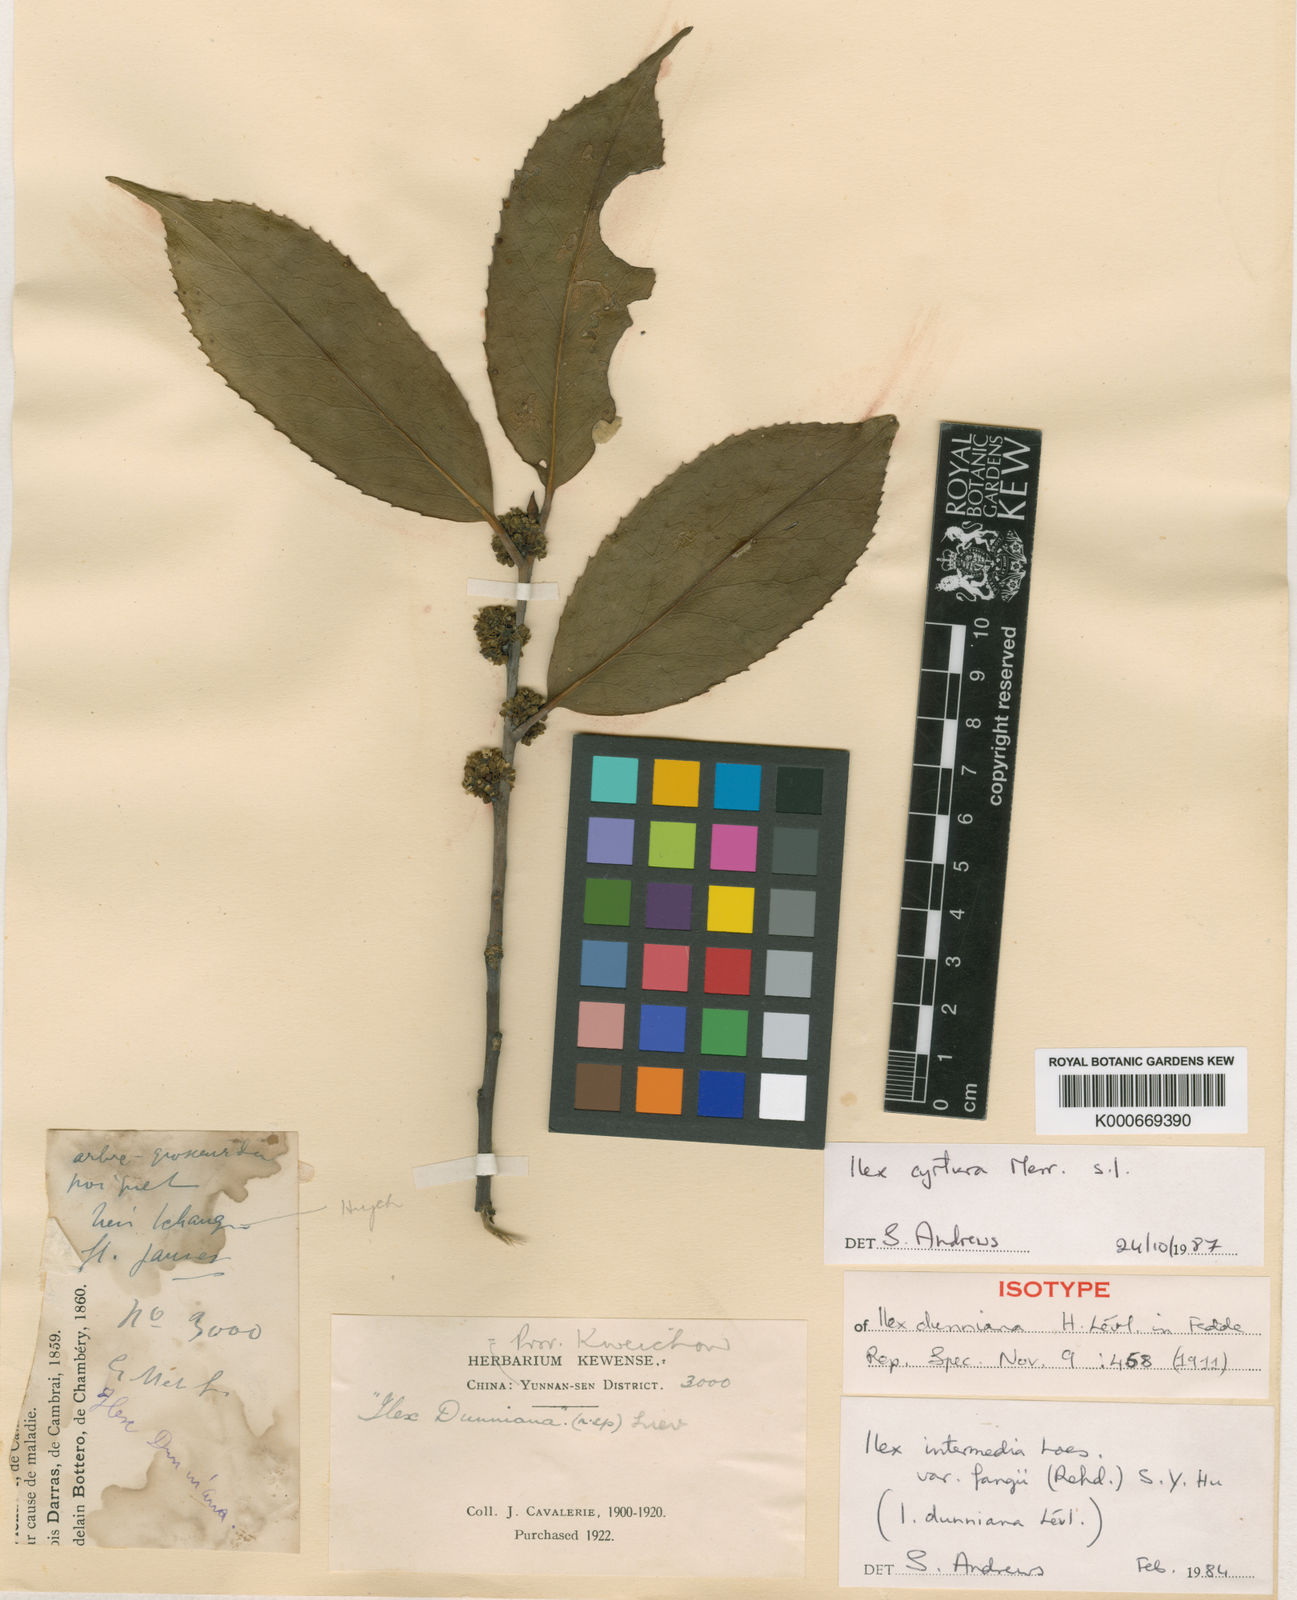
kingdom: Plantae
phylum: Tracheophyta
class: Magnoliopsida
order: Aquifoliales
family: Aquifoliaceae
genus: Ilex
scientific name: Ilex cyrtura
